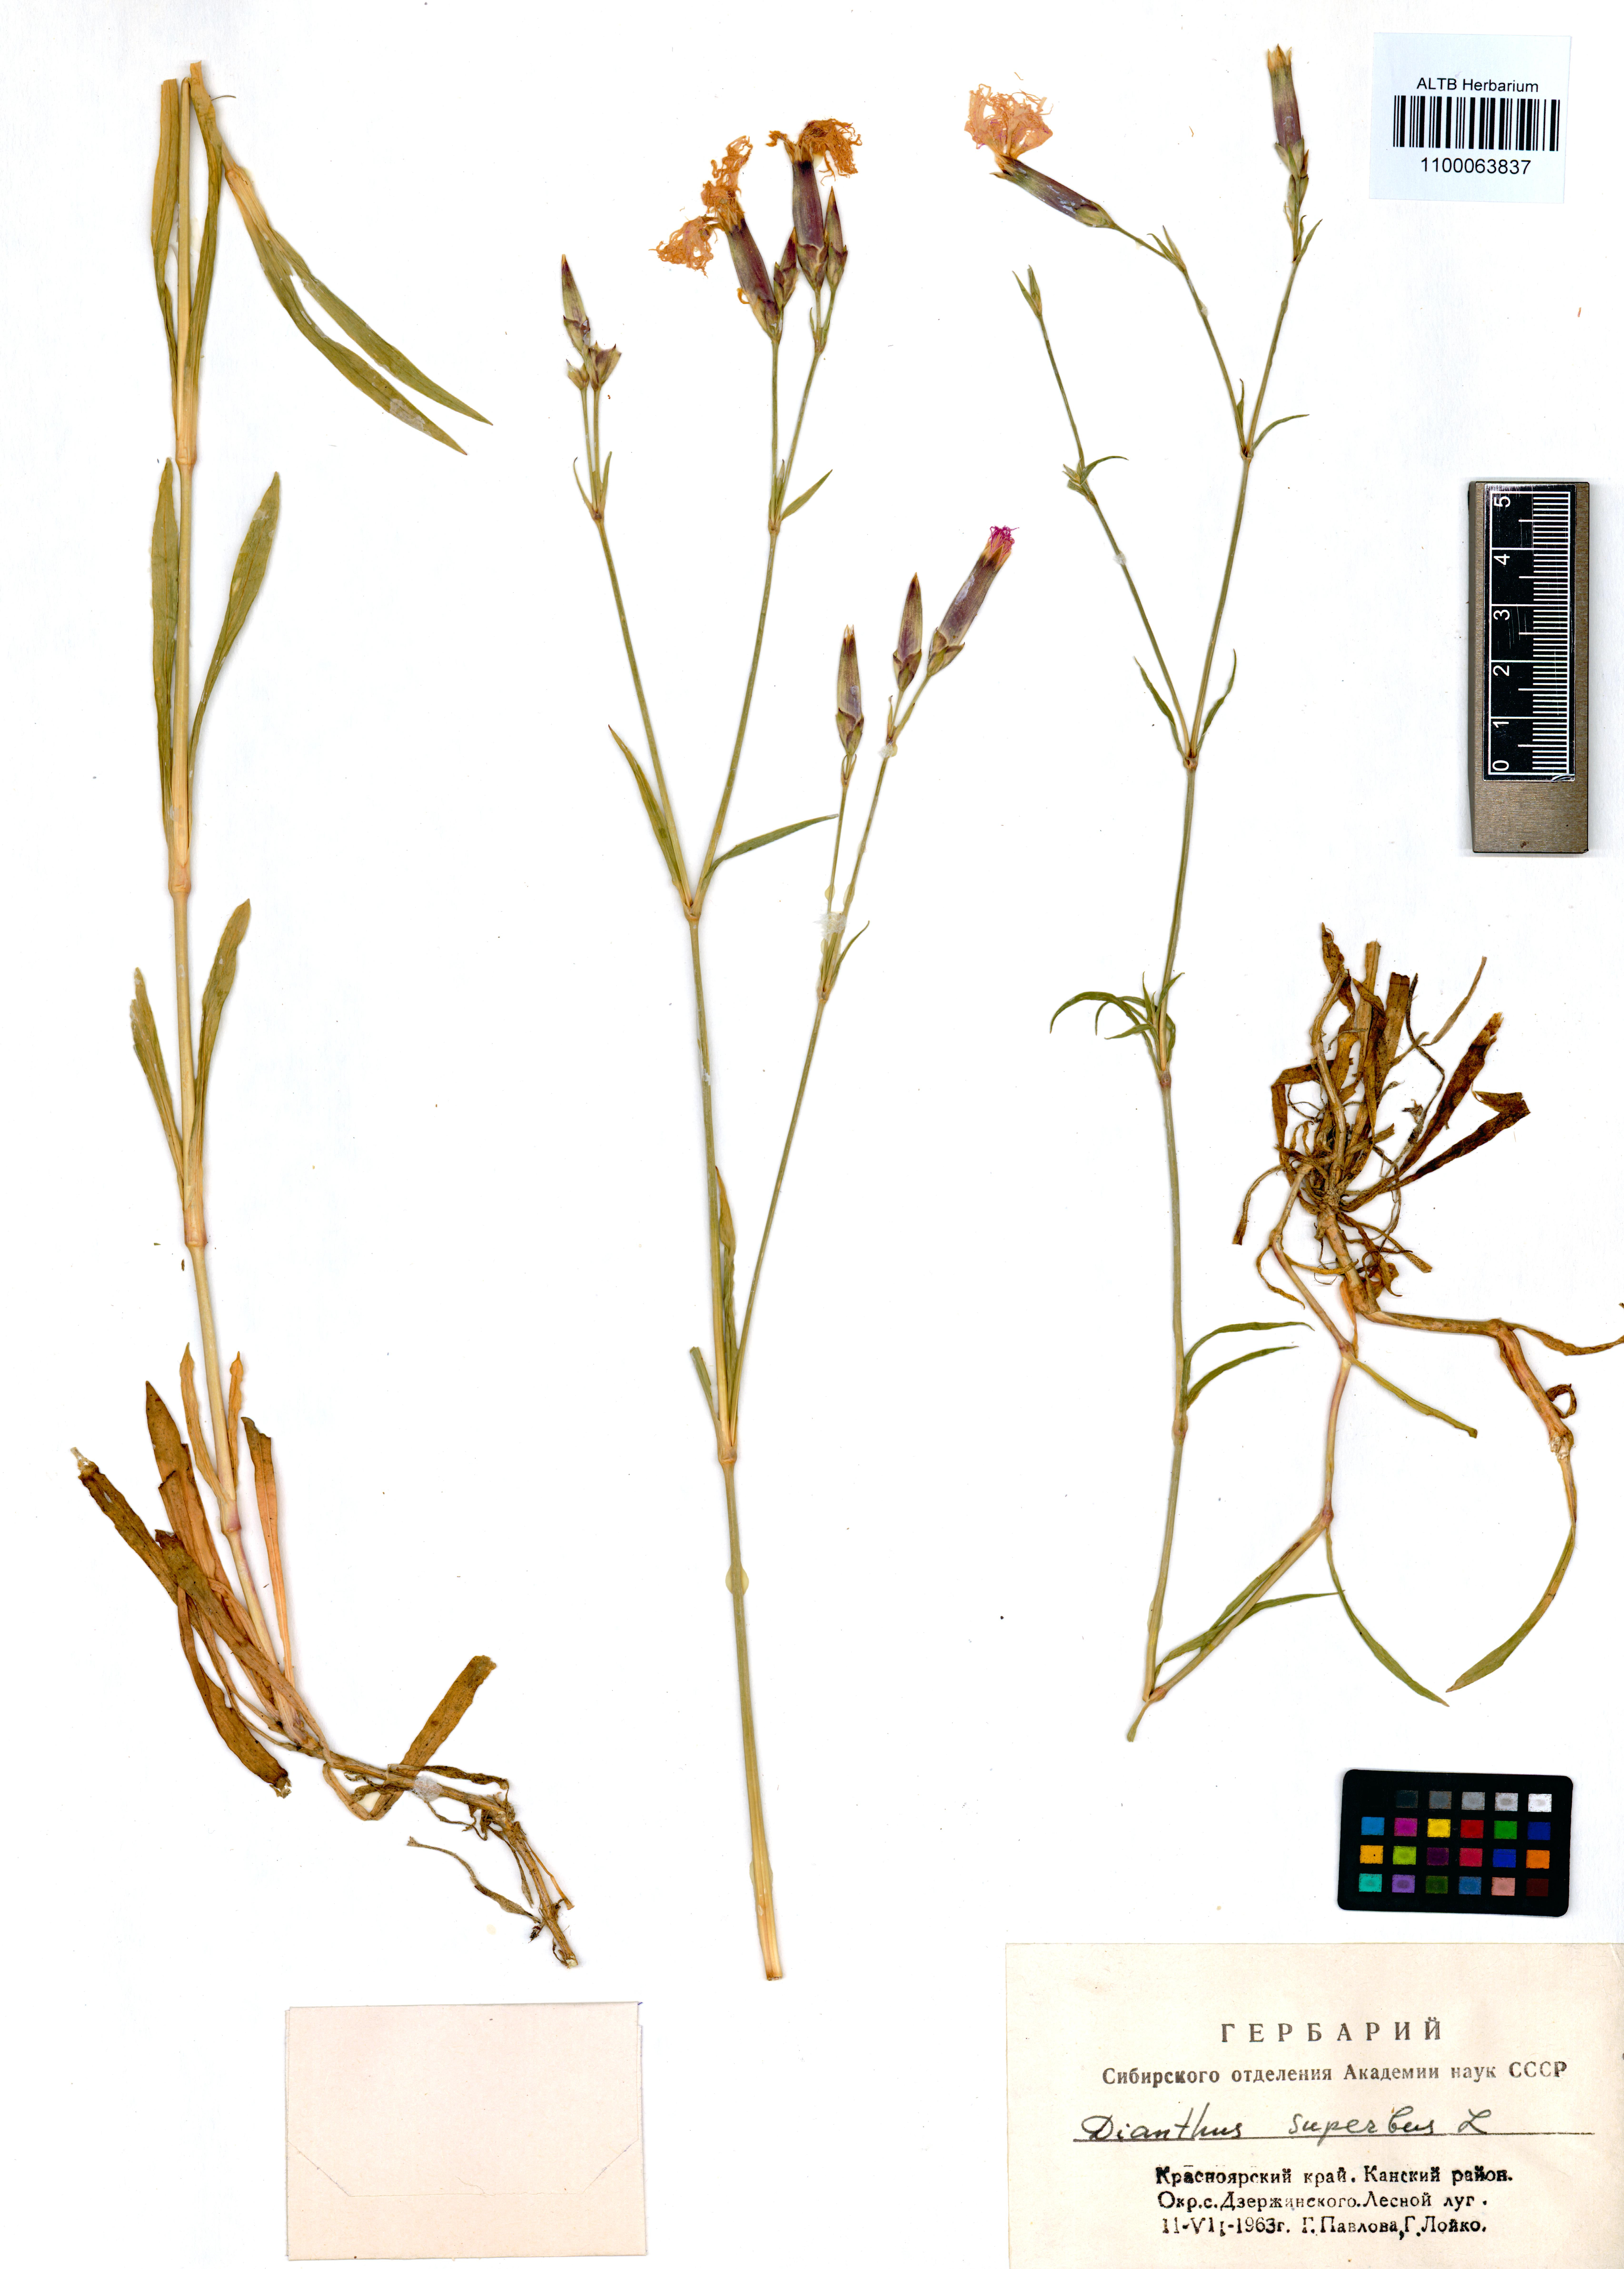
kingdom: Plantae
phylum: Tracheophyta
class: Magnoliopsida
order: Caryophyllales
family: Caryophyllaceae
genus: Dianthus
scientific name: Dianthus superbus
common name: Fringed pink
